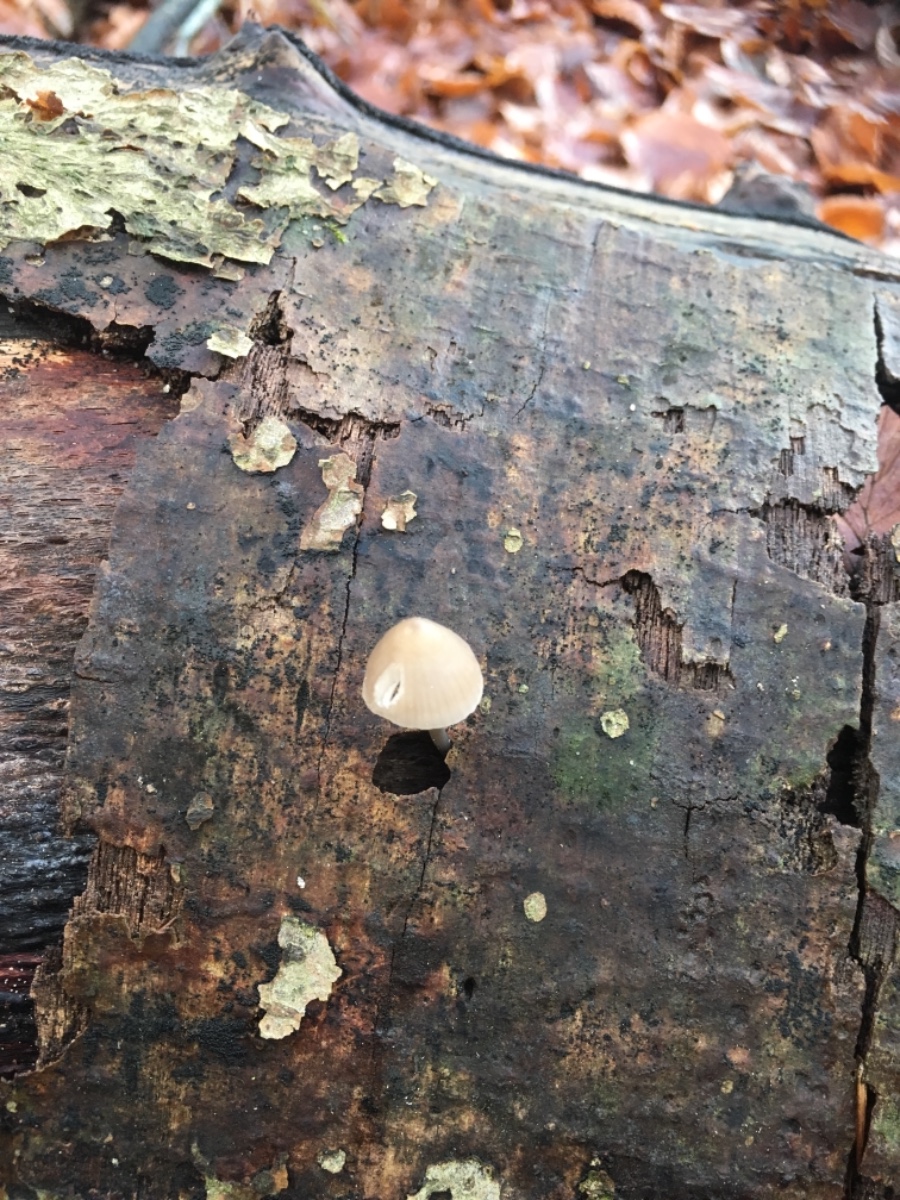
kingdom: Fungi
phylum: Basidiomycota
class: Agaricomycetes
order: Agaricales
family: Mycenaceae
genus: Mycena
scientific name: Mycena
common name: huesvamp
